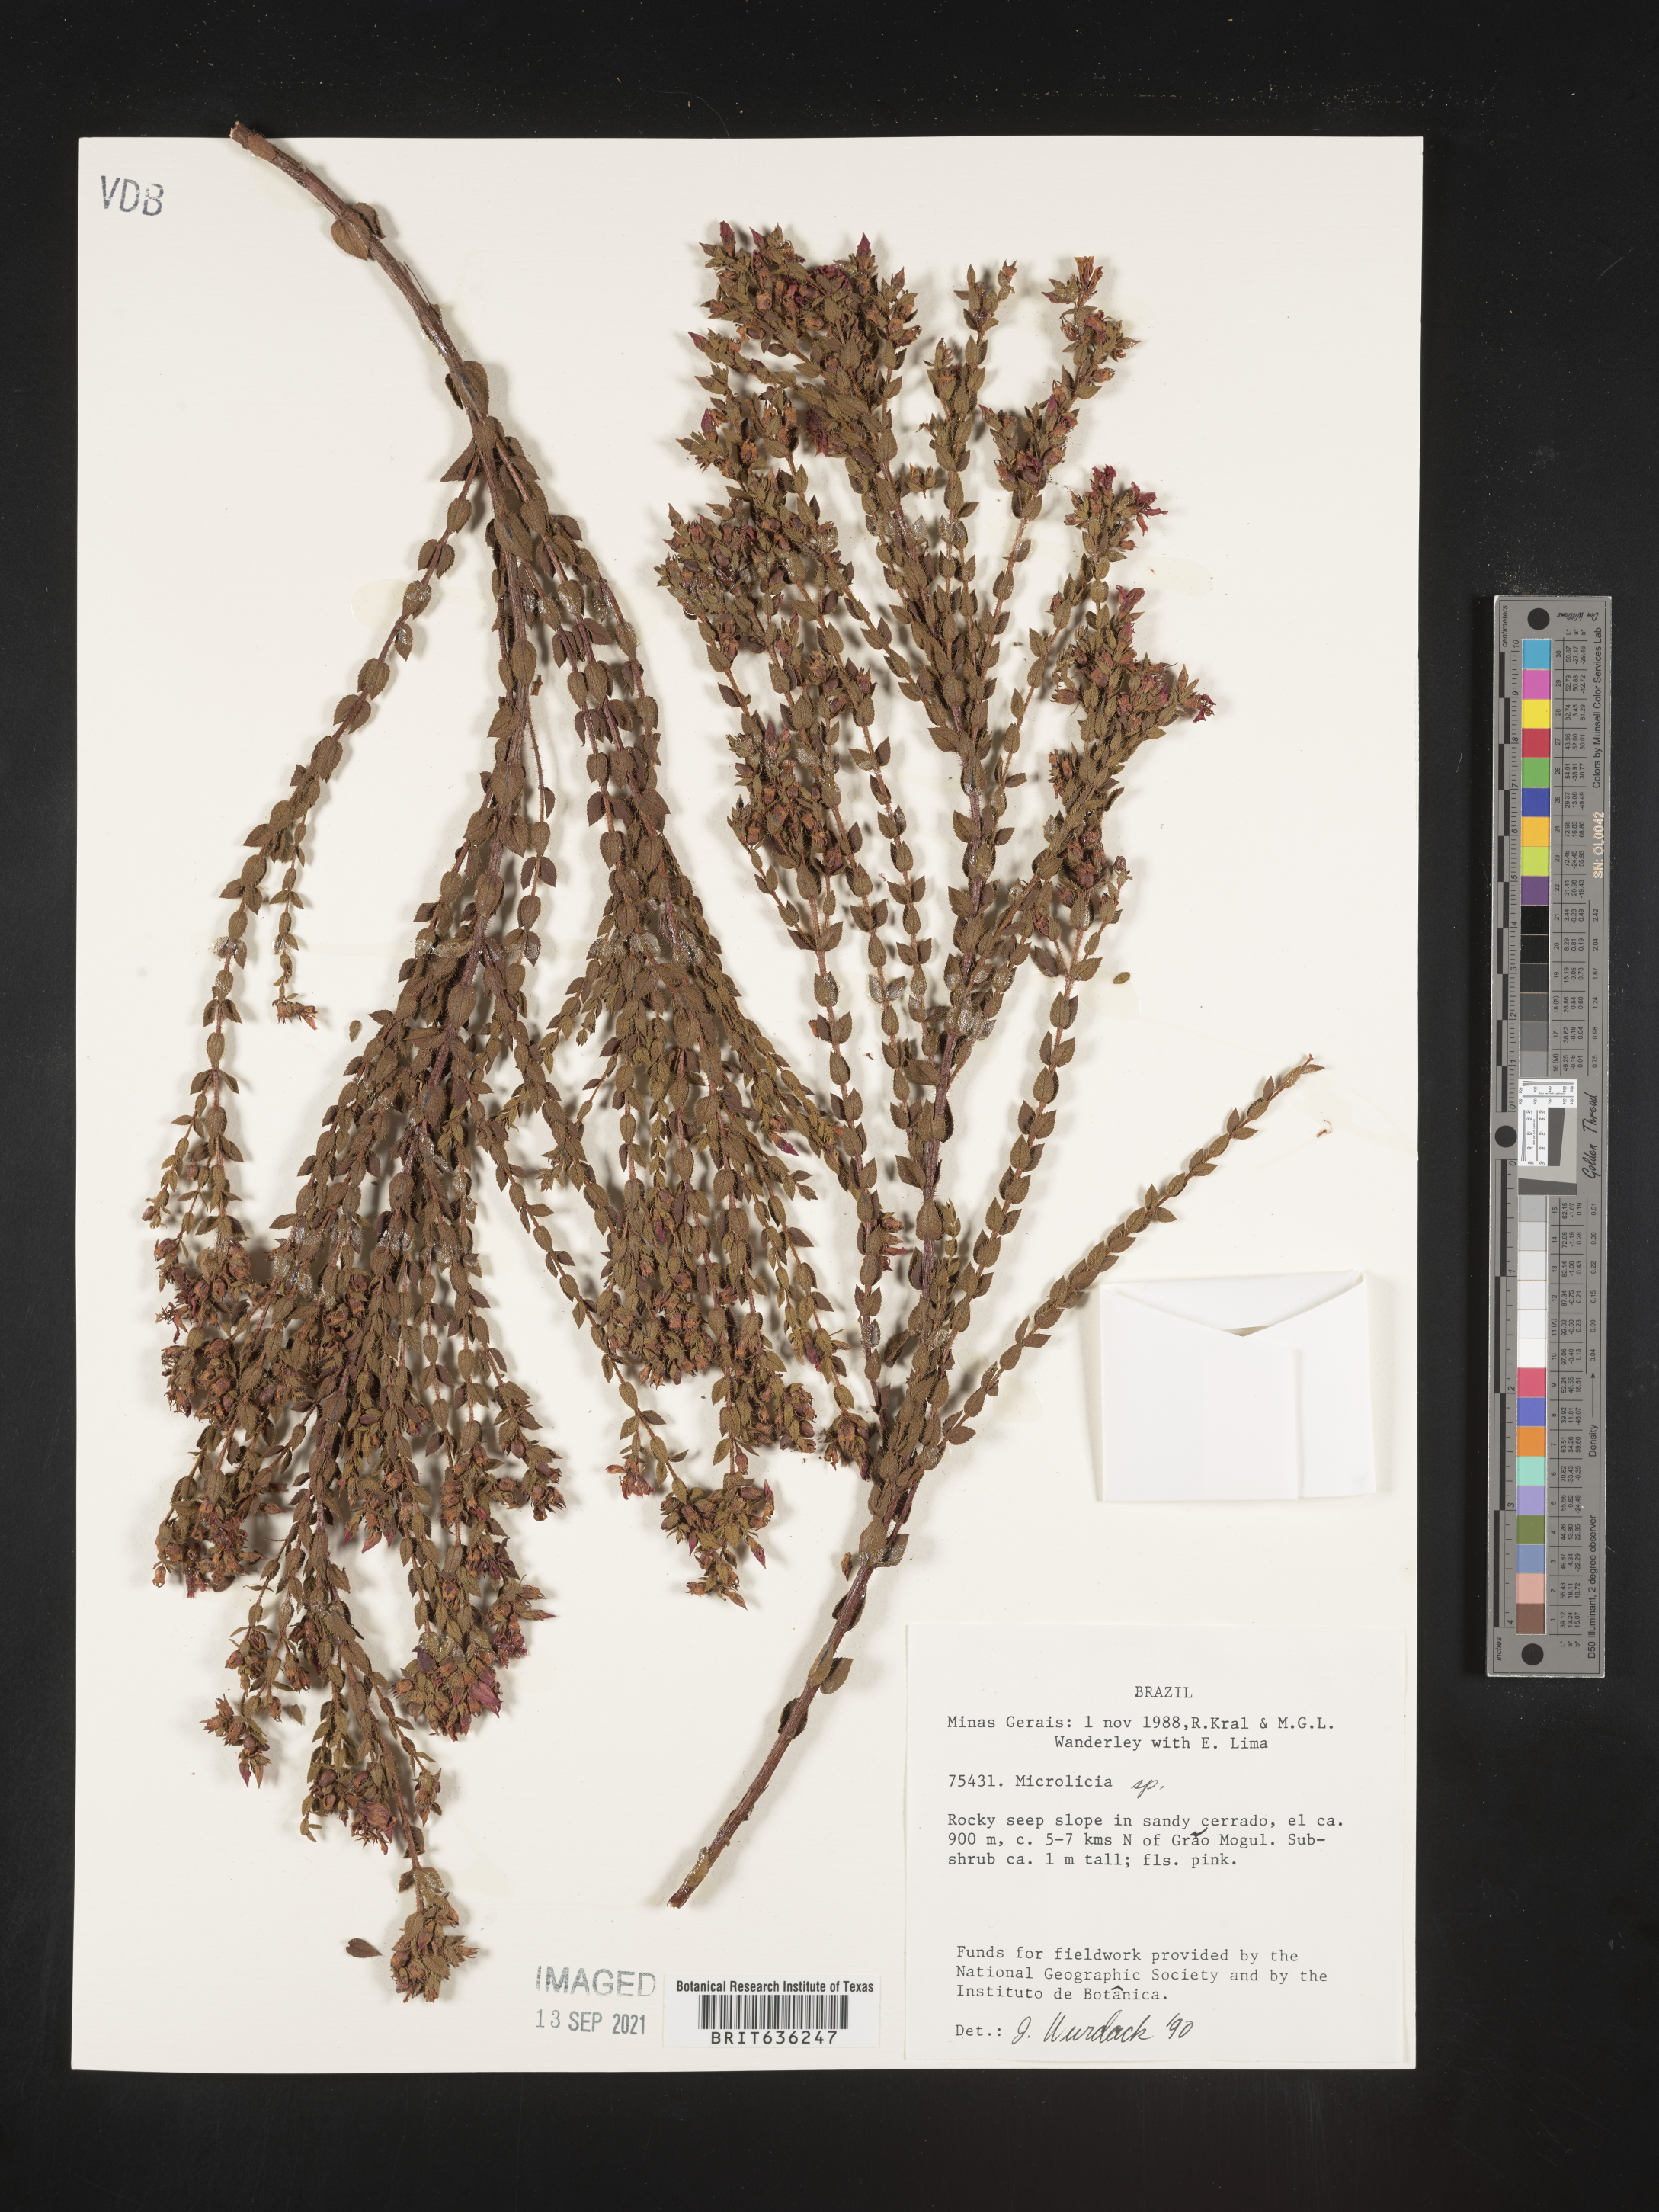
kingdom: Plantae
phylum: Tracheophyta
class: Magnoliopsida
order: Myrtales
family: Melastomataceae
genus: Microlicia
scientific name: Microlicia
